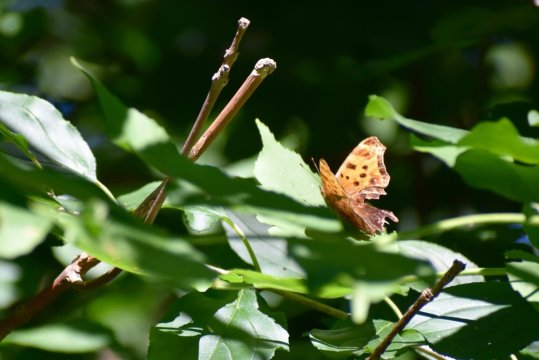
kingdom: Animalia
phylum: Arthropoda
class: Insecta
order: Lepidoptera
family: Nymphalidae
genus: Polygonia
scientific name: Polygonia comma
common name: Eastern Comma
